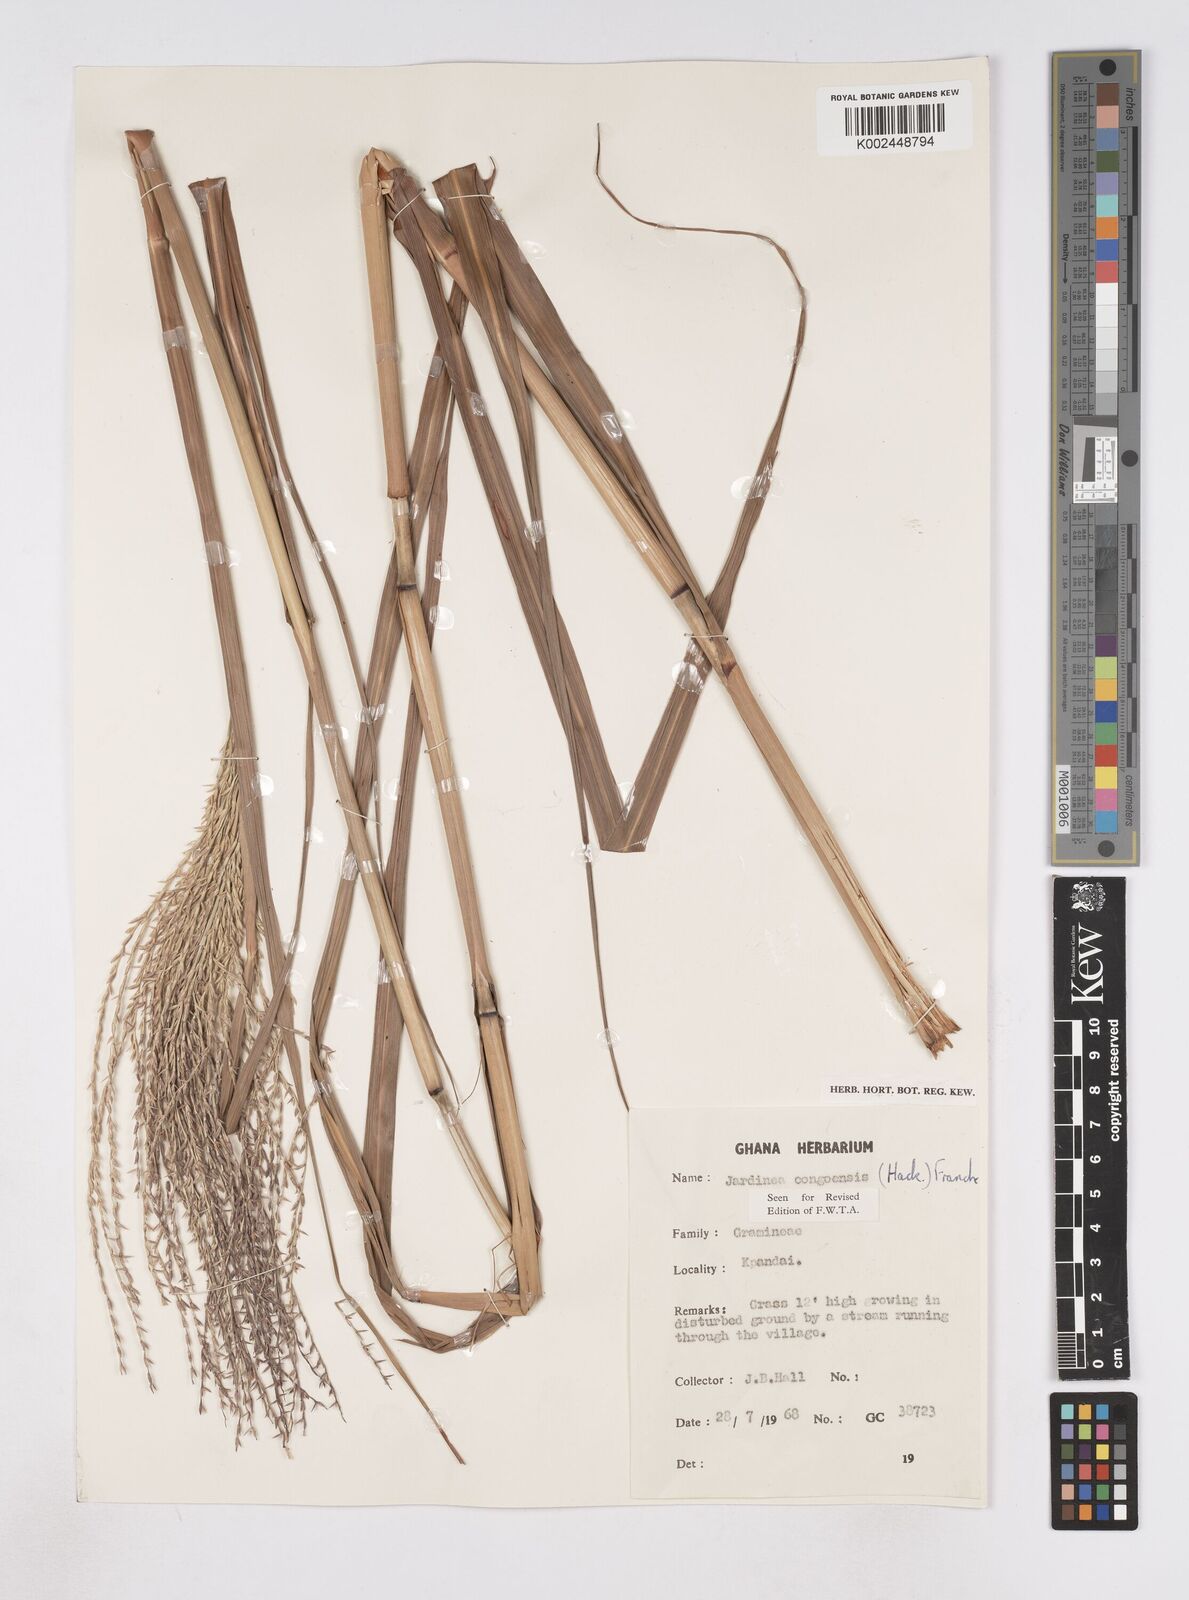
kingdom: Plantae
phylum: Tracheophyta
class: Liliopsida
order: Poales
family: Poaceae
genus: Phacelurus
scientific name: Phacelurus gabonensis
